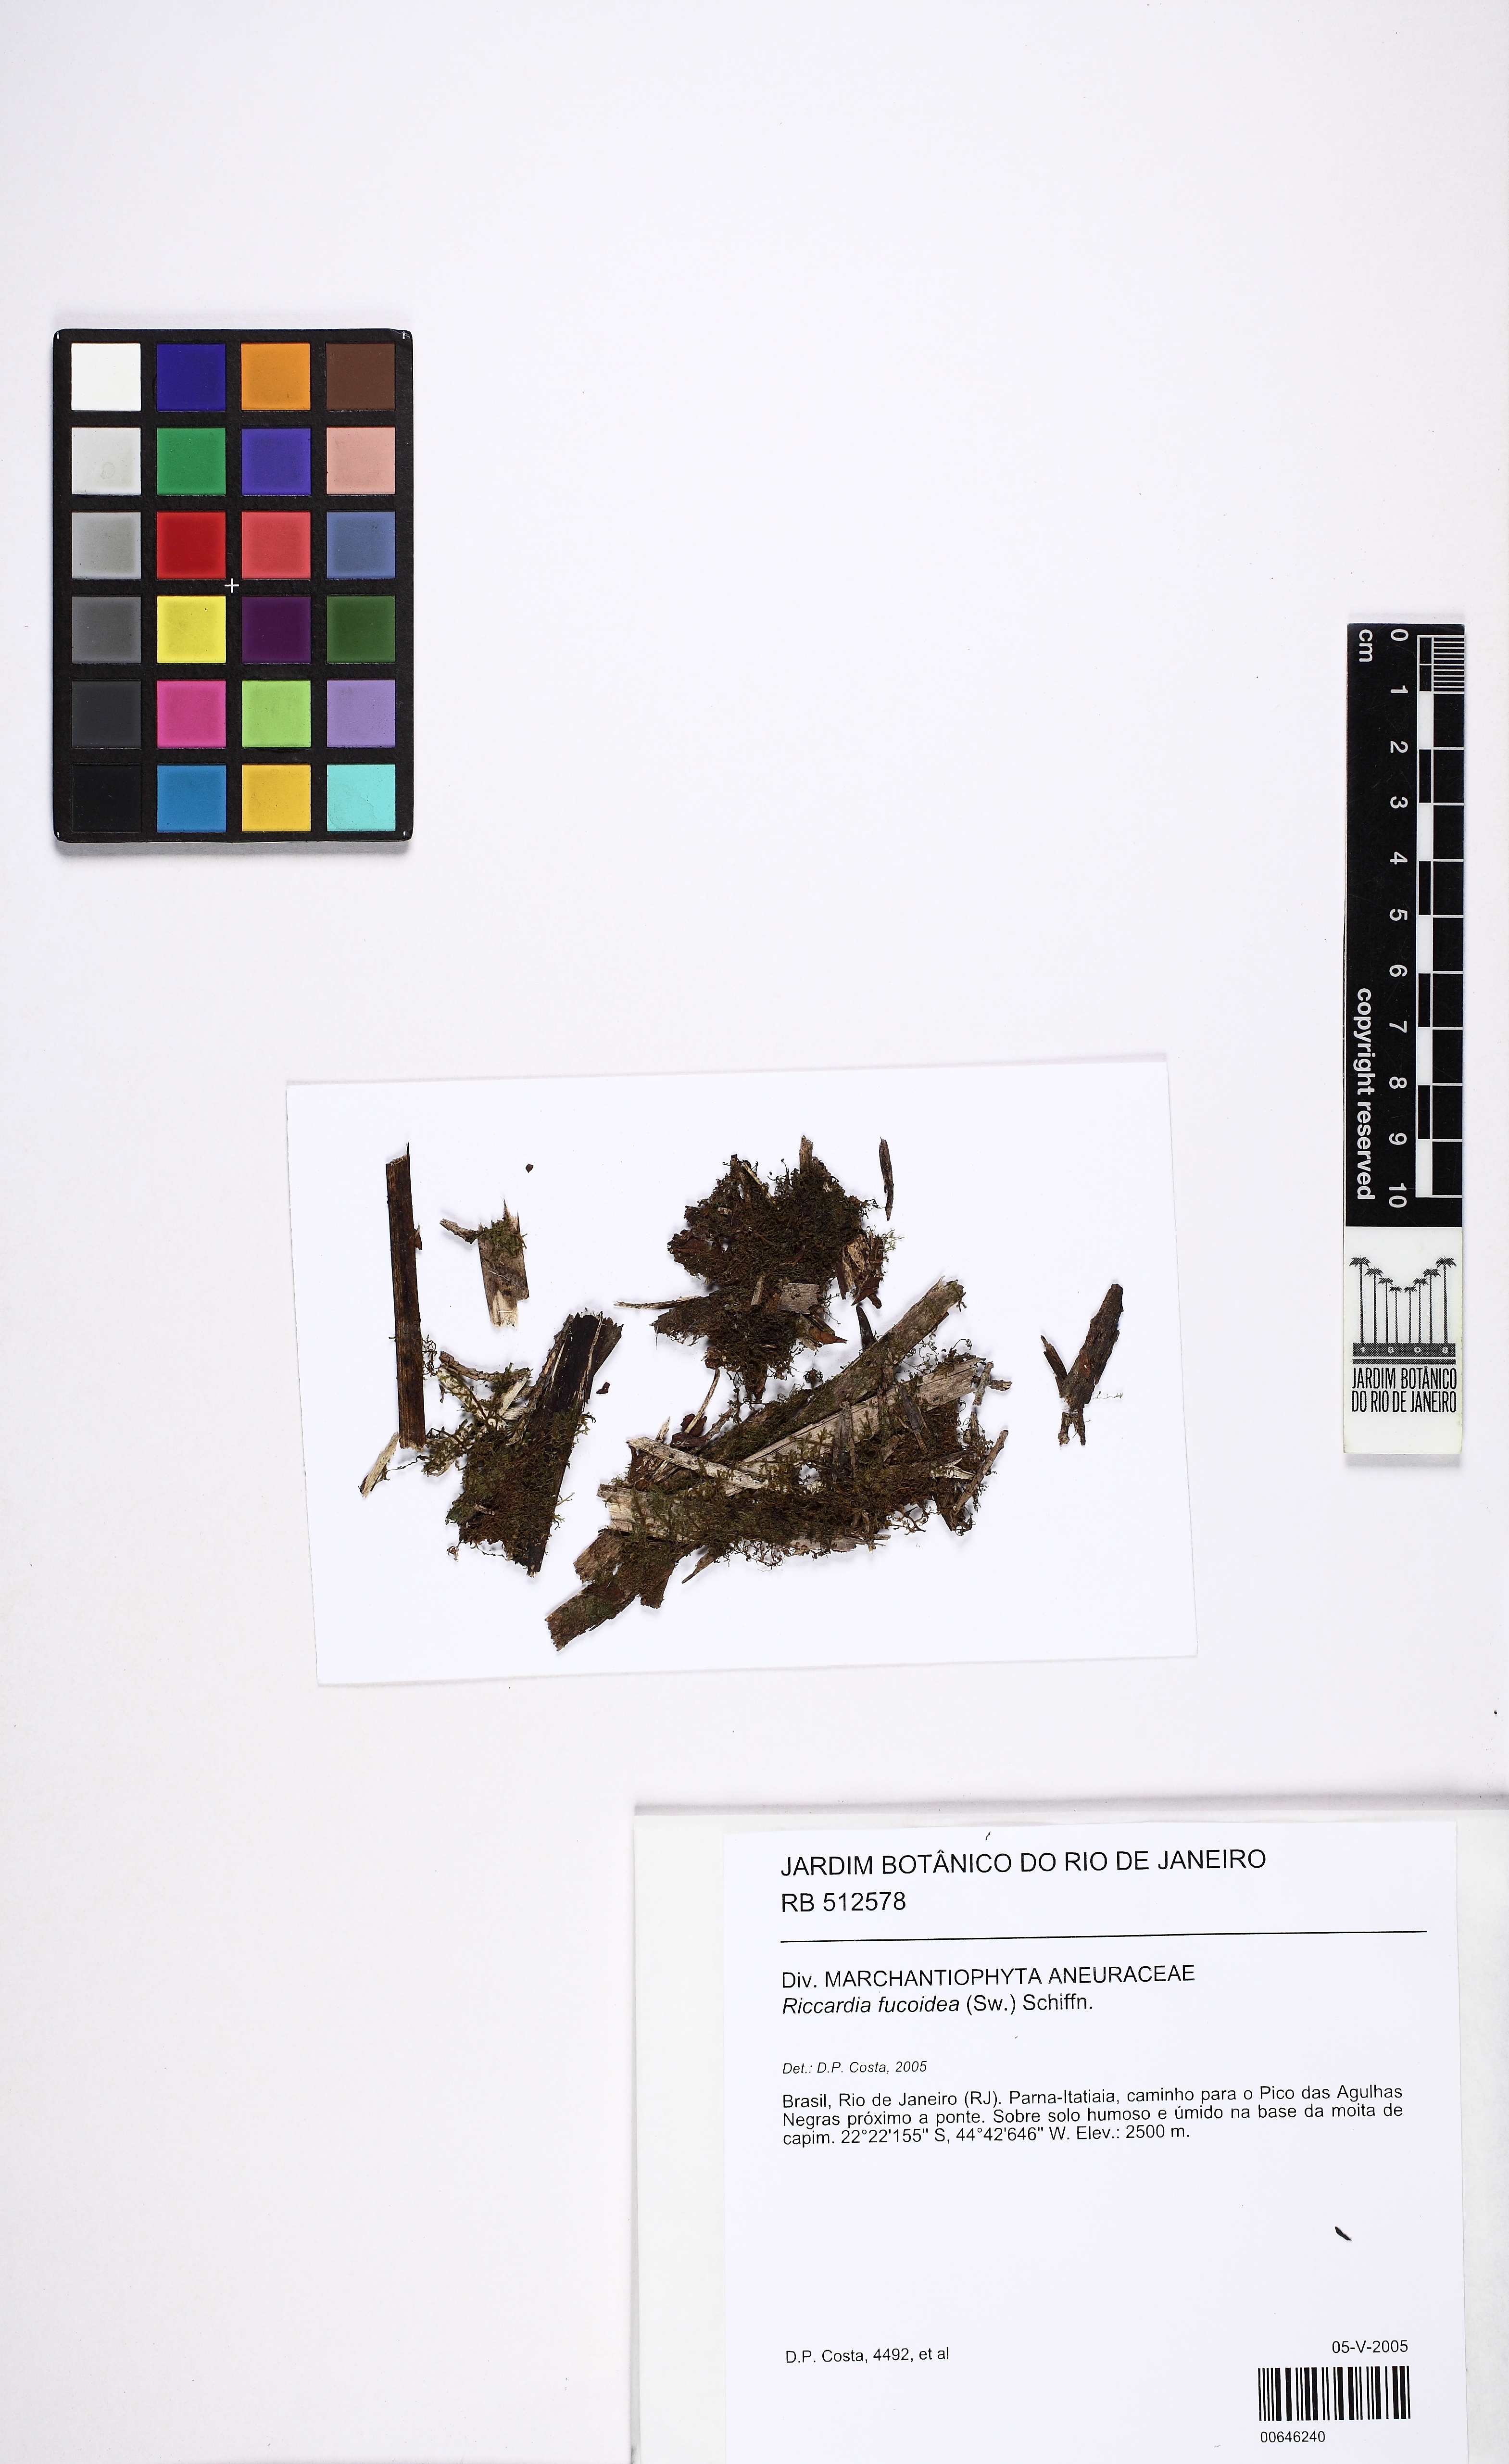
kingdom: Plantae
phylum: Marchantiophyta
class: Jungermanniopsida
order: Metzgeriales
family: Aneuraceae
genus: Riccardia
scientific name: Riccardia fucoidea
